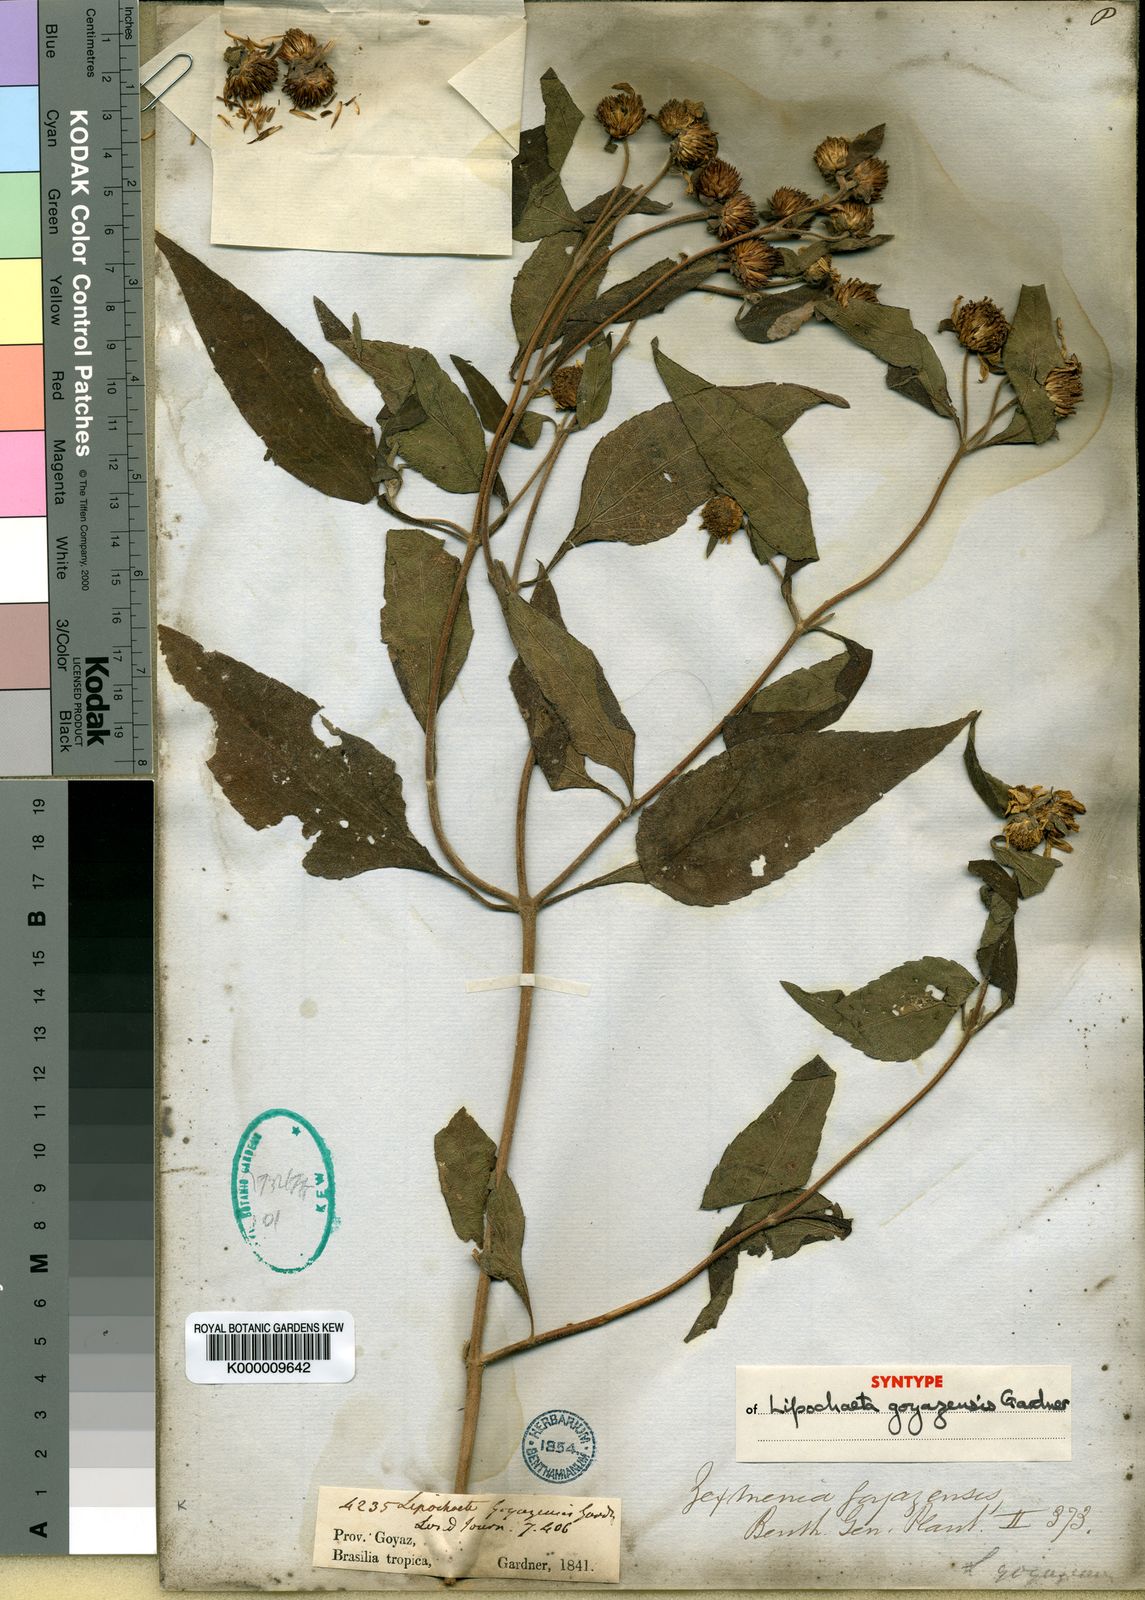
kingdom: Plantae
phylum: Tracheophyta
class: Magnoliopsida
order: Asterales
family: Asteraceae
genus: Dimerostemma
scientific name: Dimerostemma goyazense
